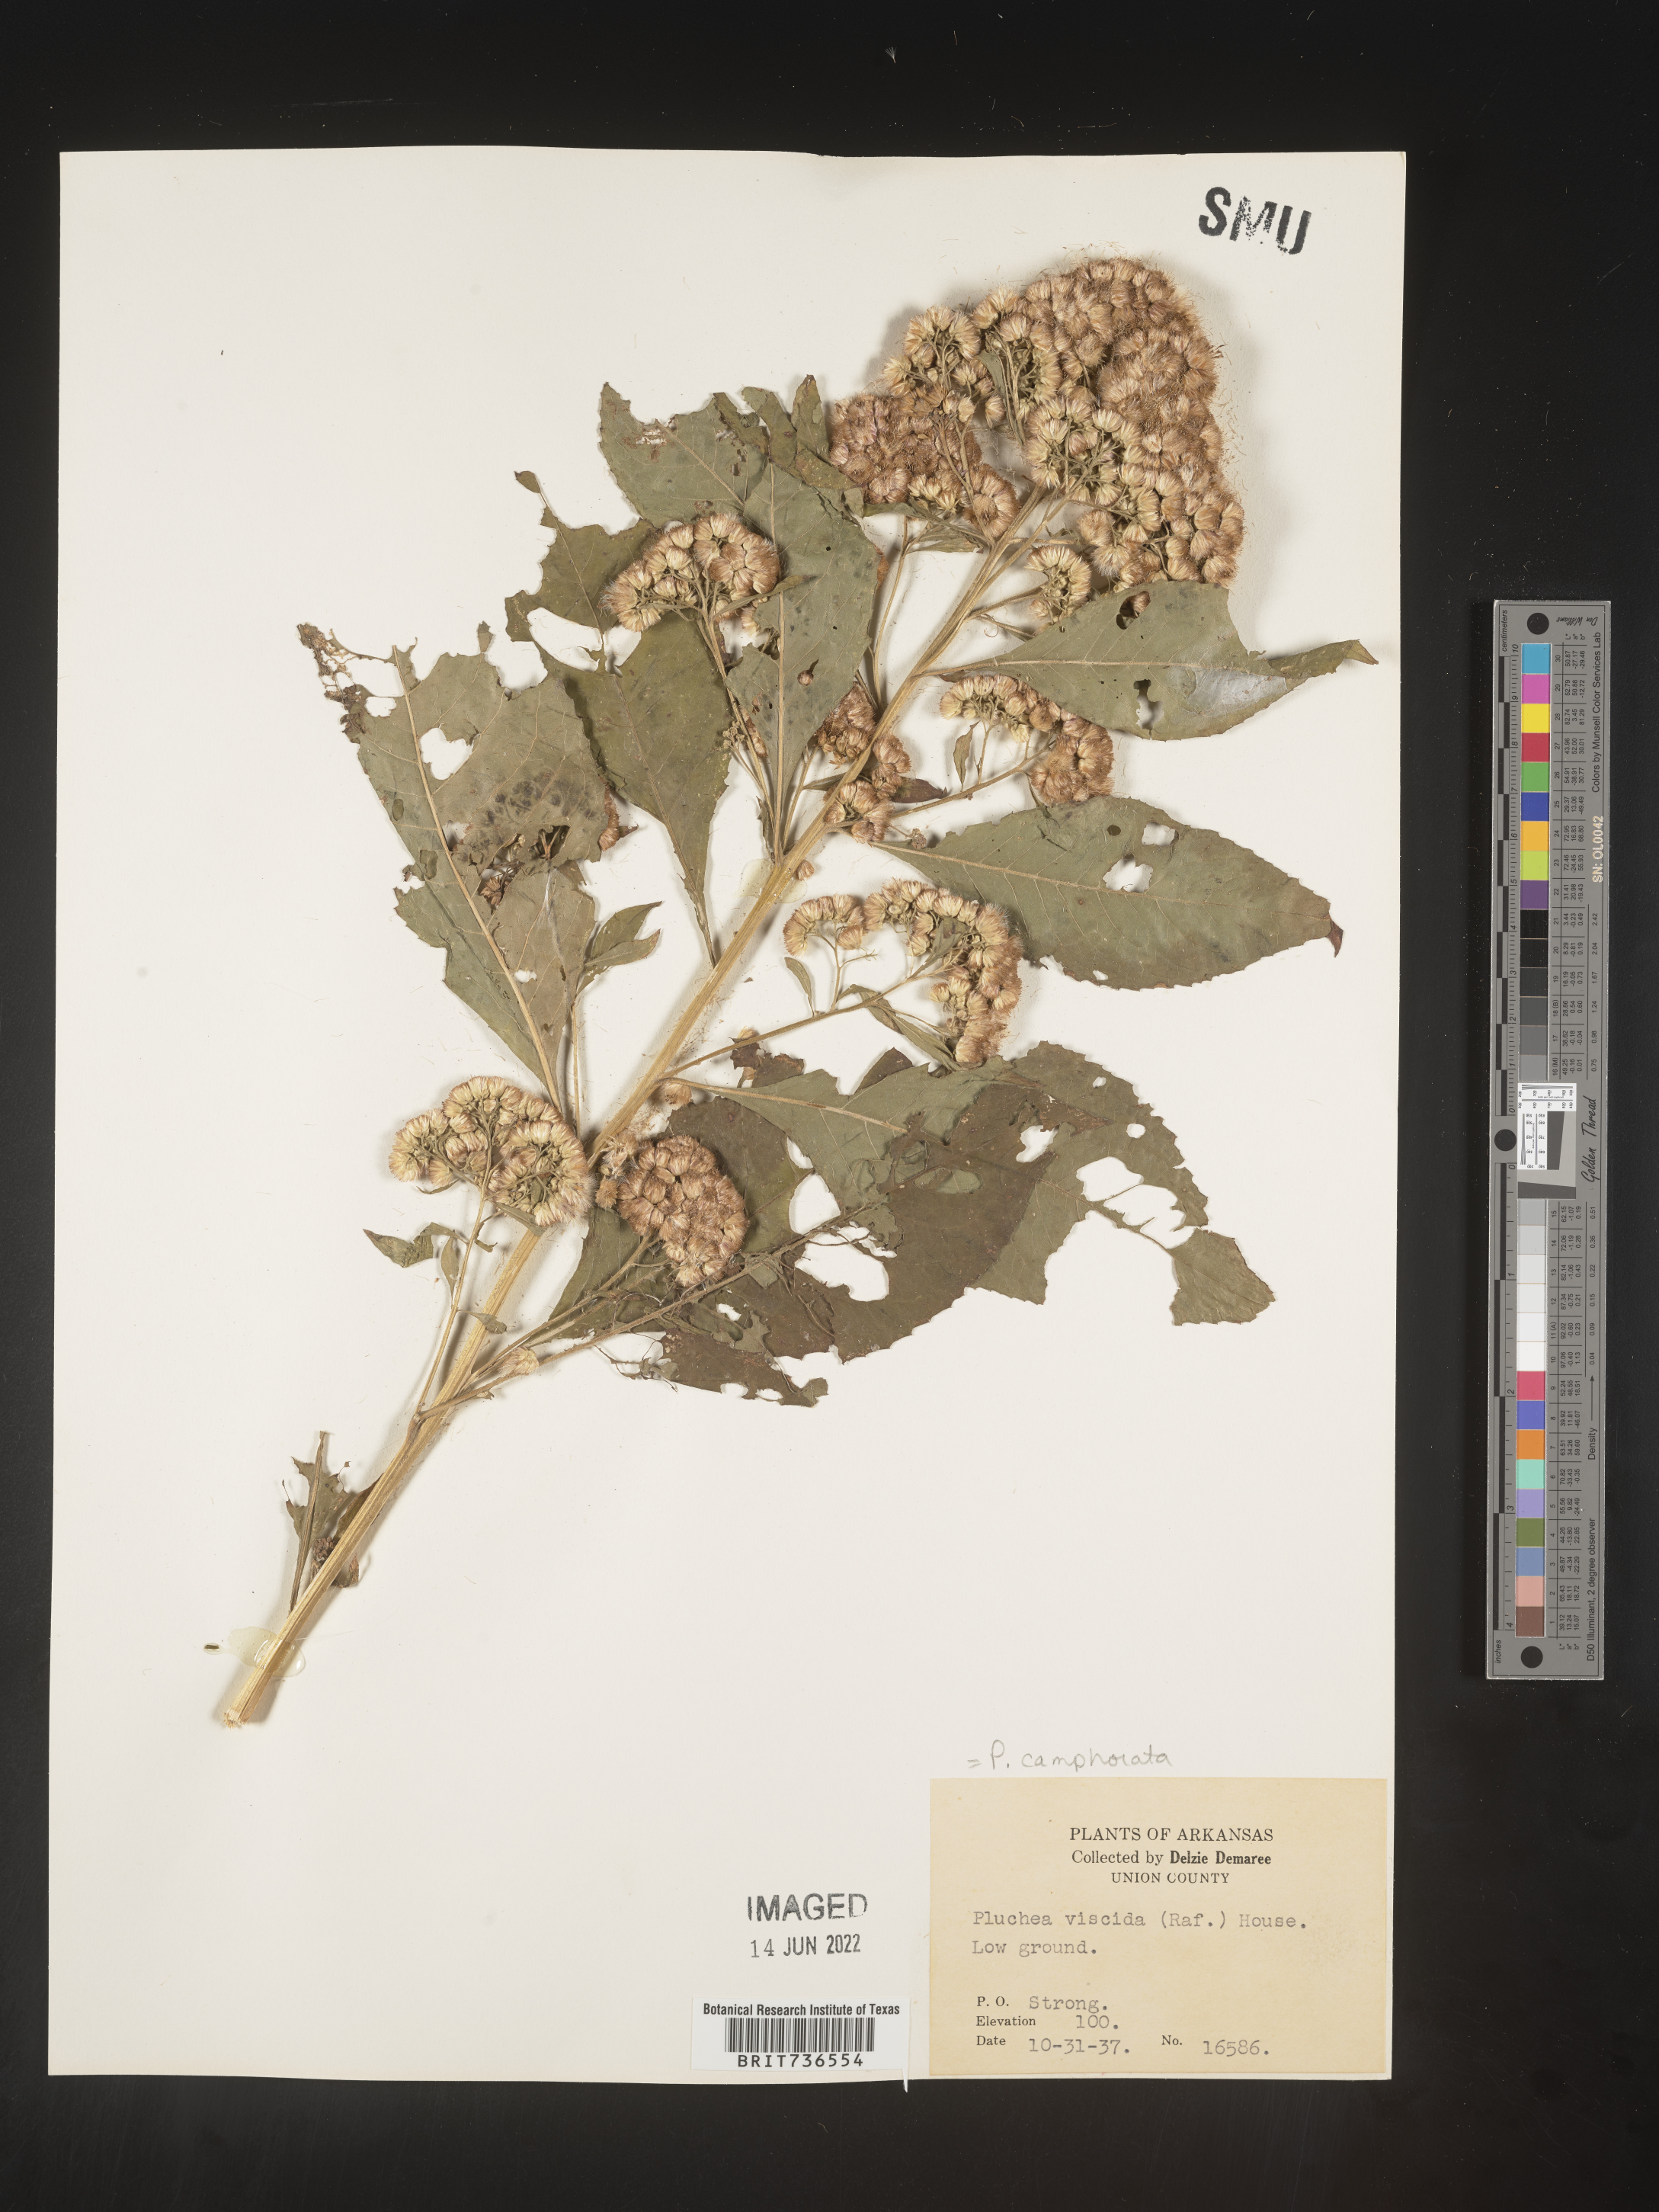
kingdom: Plantae
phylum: Tracheophyta
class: Magnoliopsida
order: Asterales
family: Asteraceae
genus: Pluchea
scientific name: Pluchea camphorata
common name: Camphor pluchea
